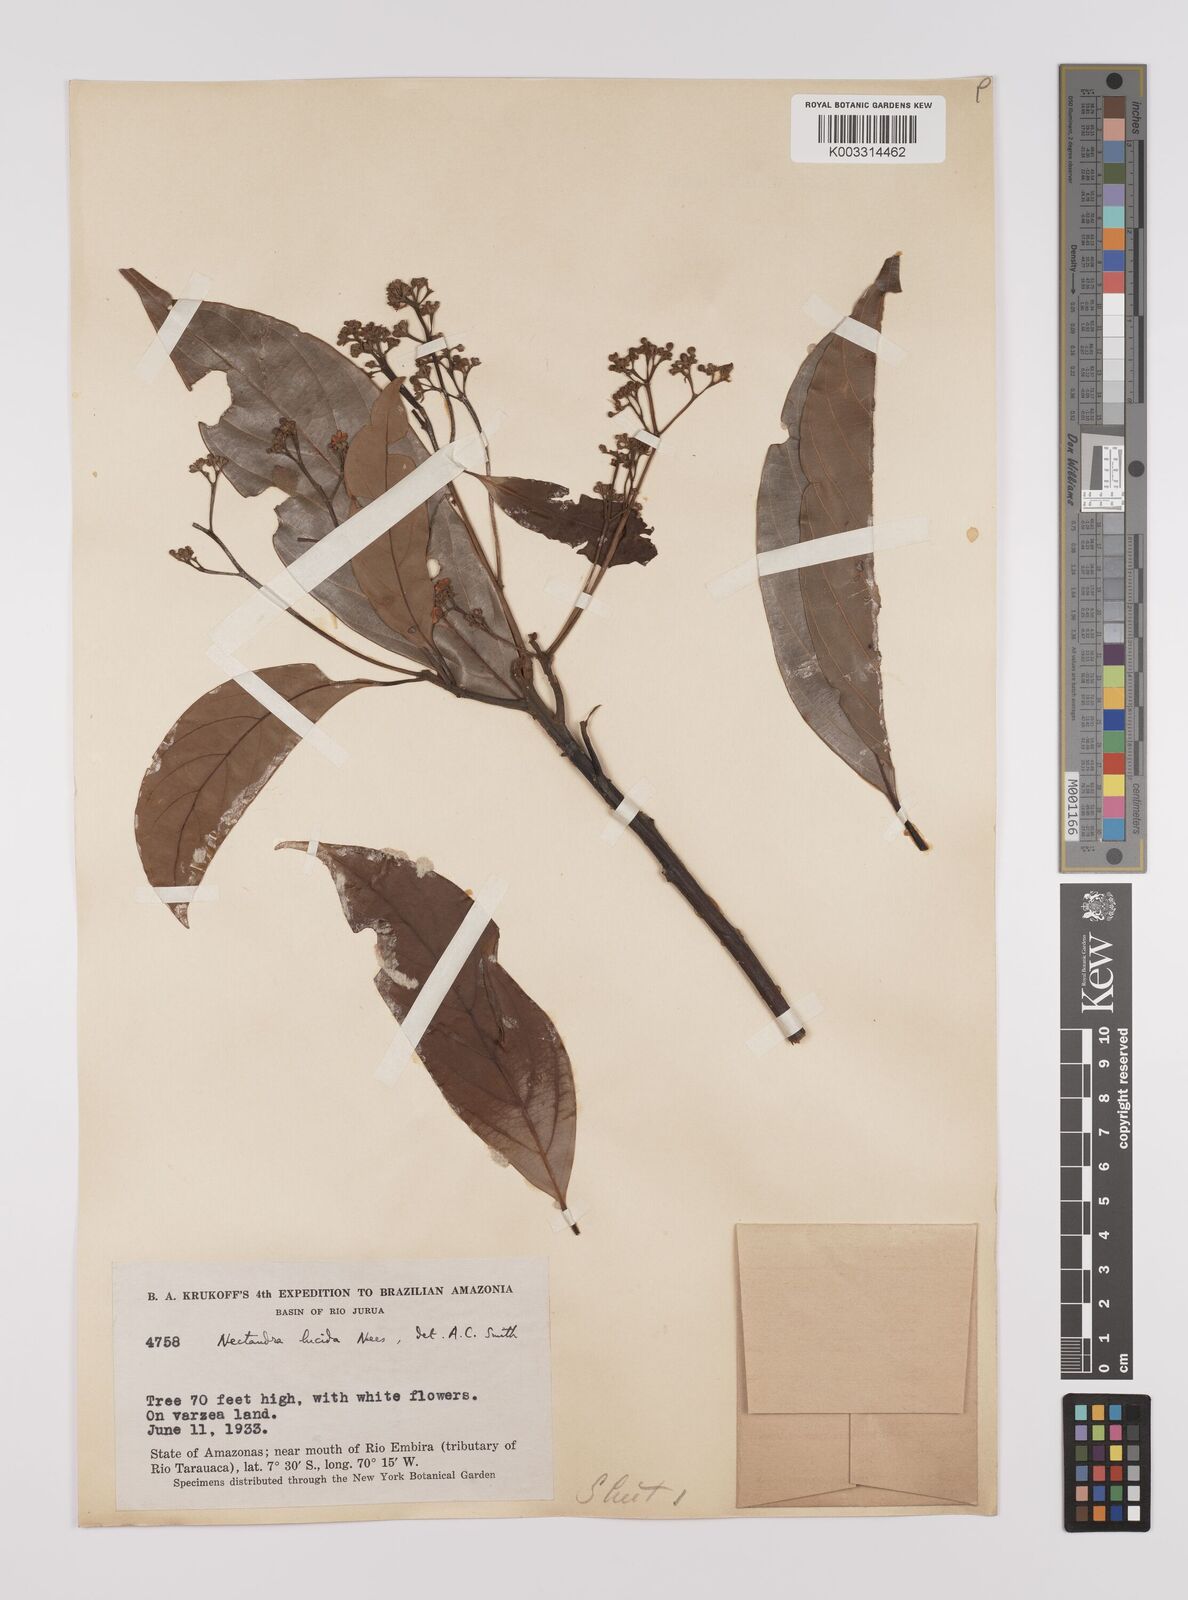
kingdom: Plantae
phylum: Tracheophyta
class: Magnoliopsida
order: Laurales
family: Lauraceae
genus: Endlicheria
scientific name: Endlicheria paniculata
